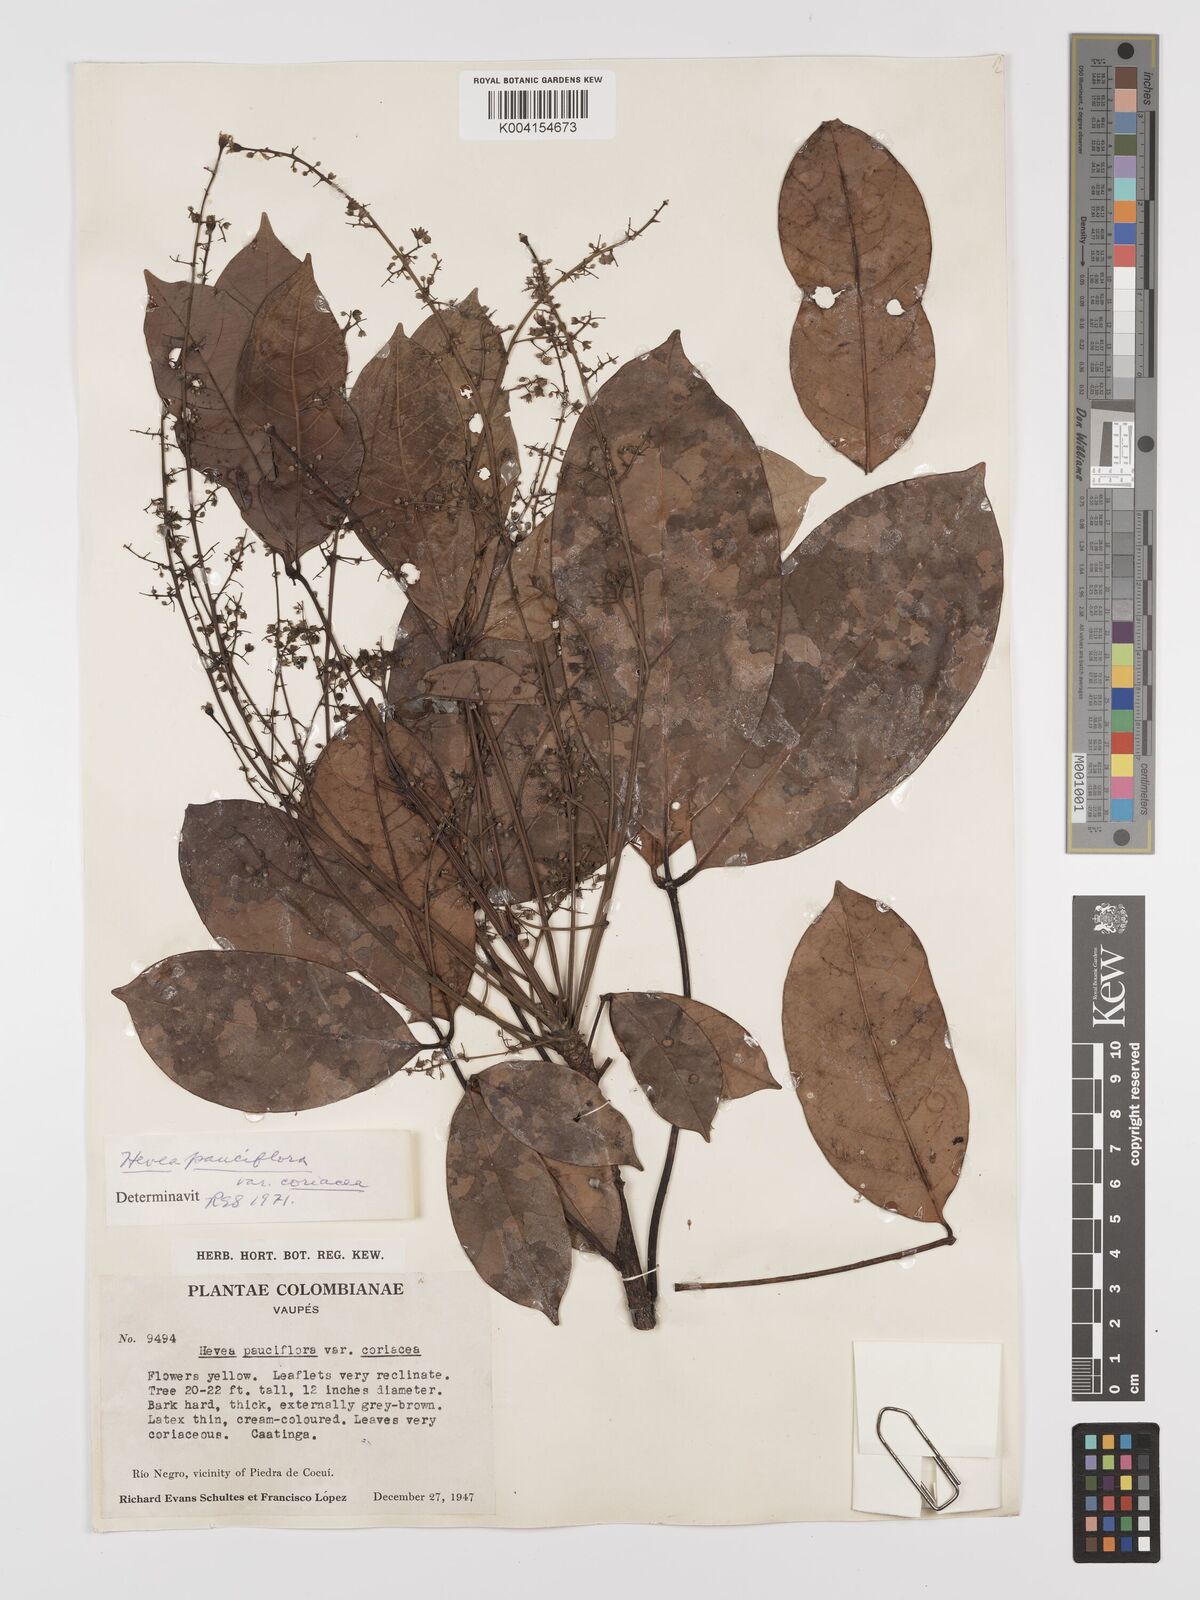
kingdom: Plantae
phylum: Tracheophyta
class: Magnoliopsida
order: Malpighiales
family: Euphorbiaceae
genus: Hevea
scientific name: Hevea pauciflora
